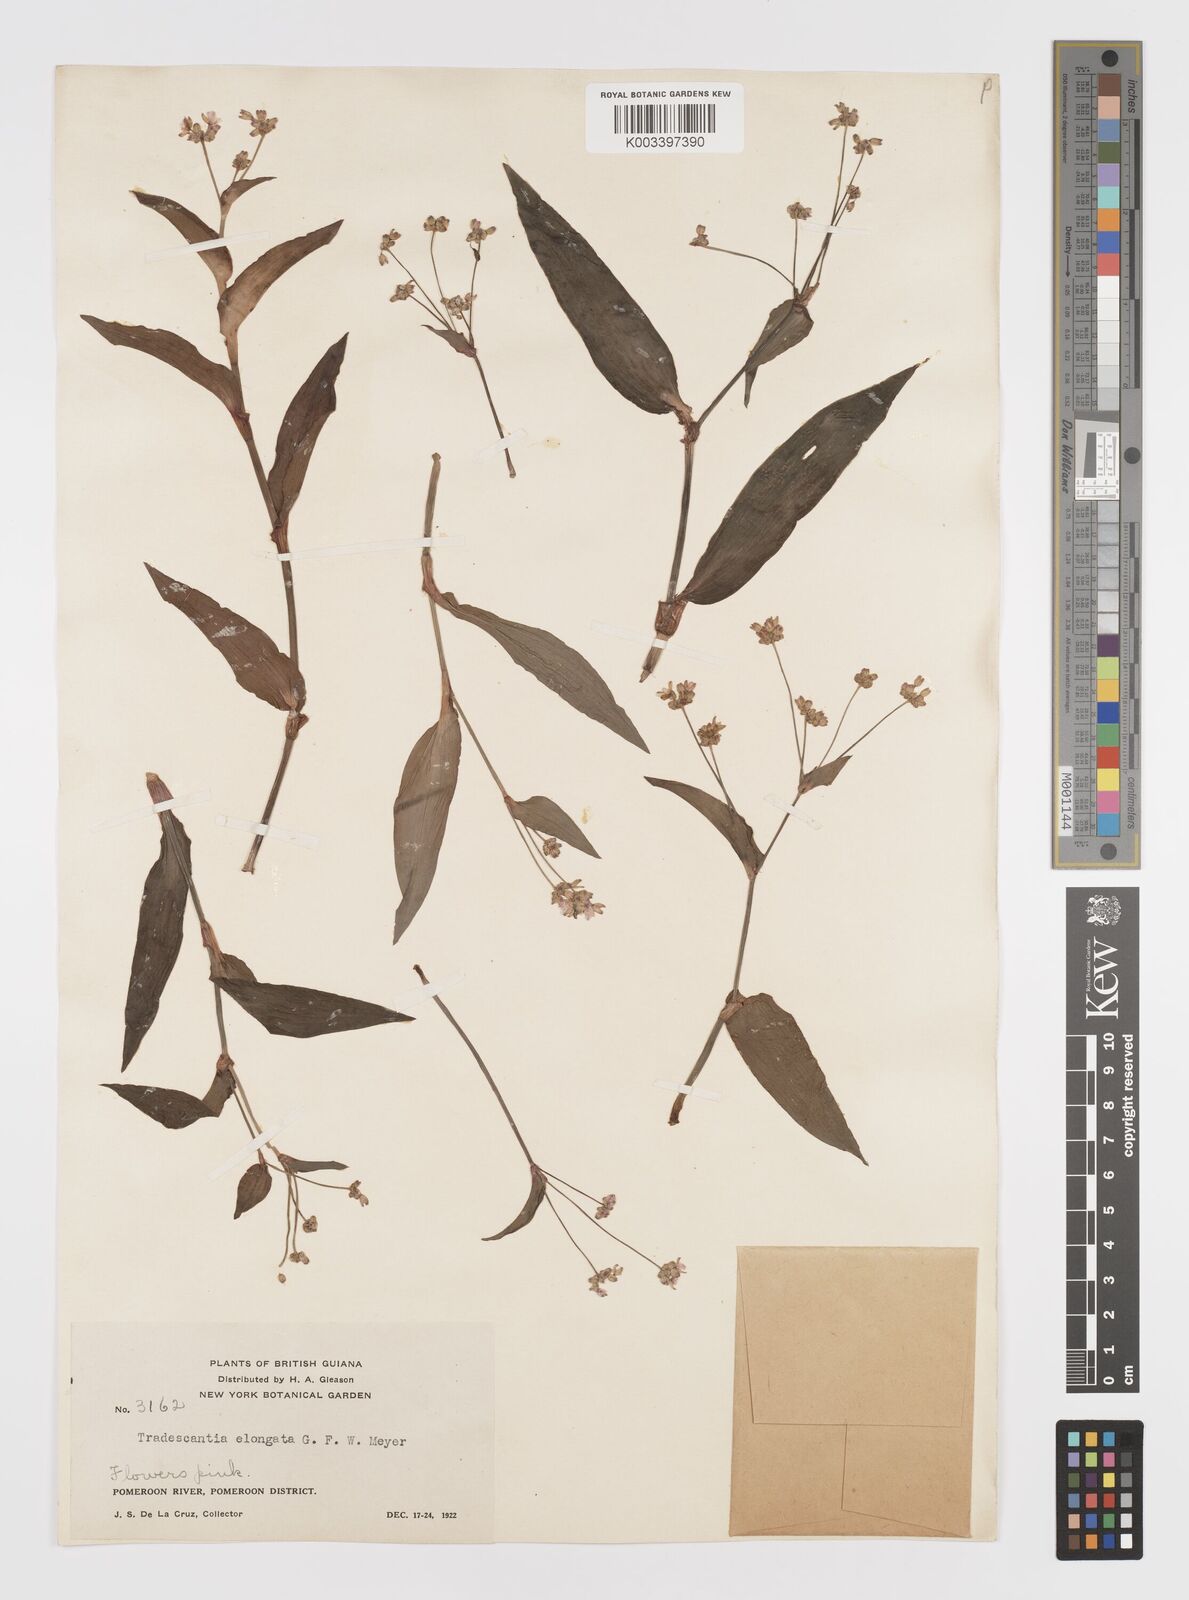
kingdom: Plantae
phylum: Tracheophyta
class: Liliopsida
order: Commelinales
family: Commelinaceae
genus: Callisia
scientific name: Callisia serrulata
